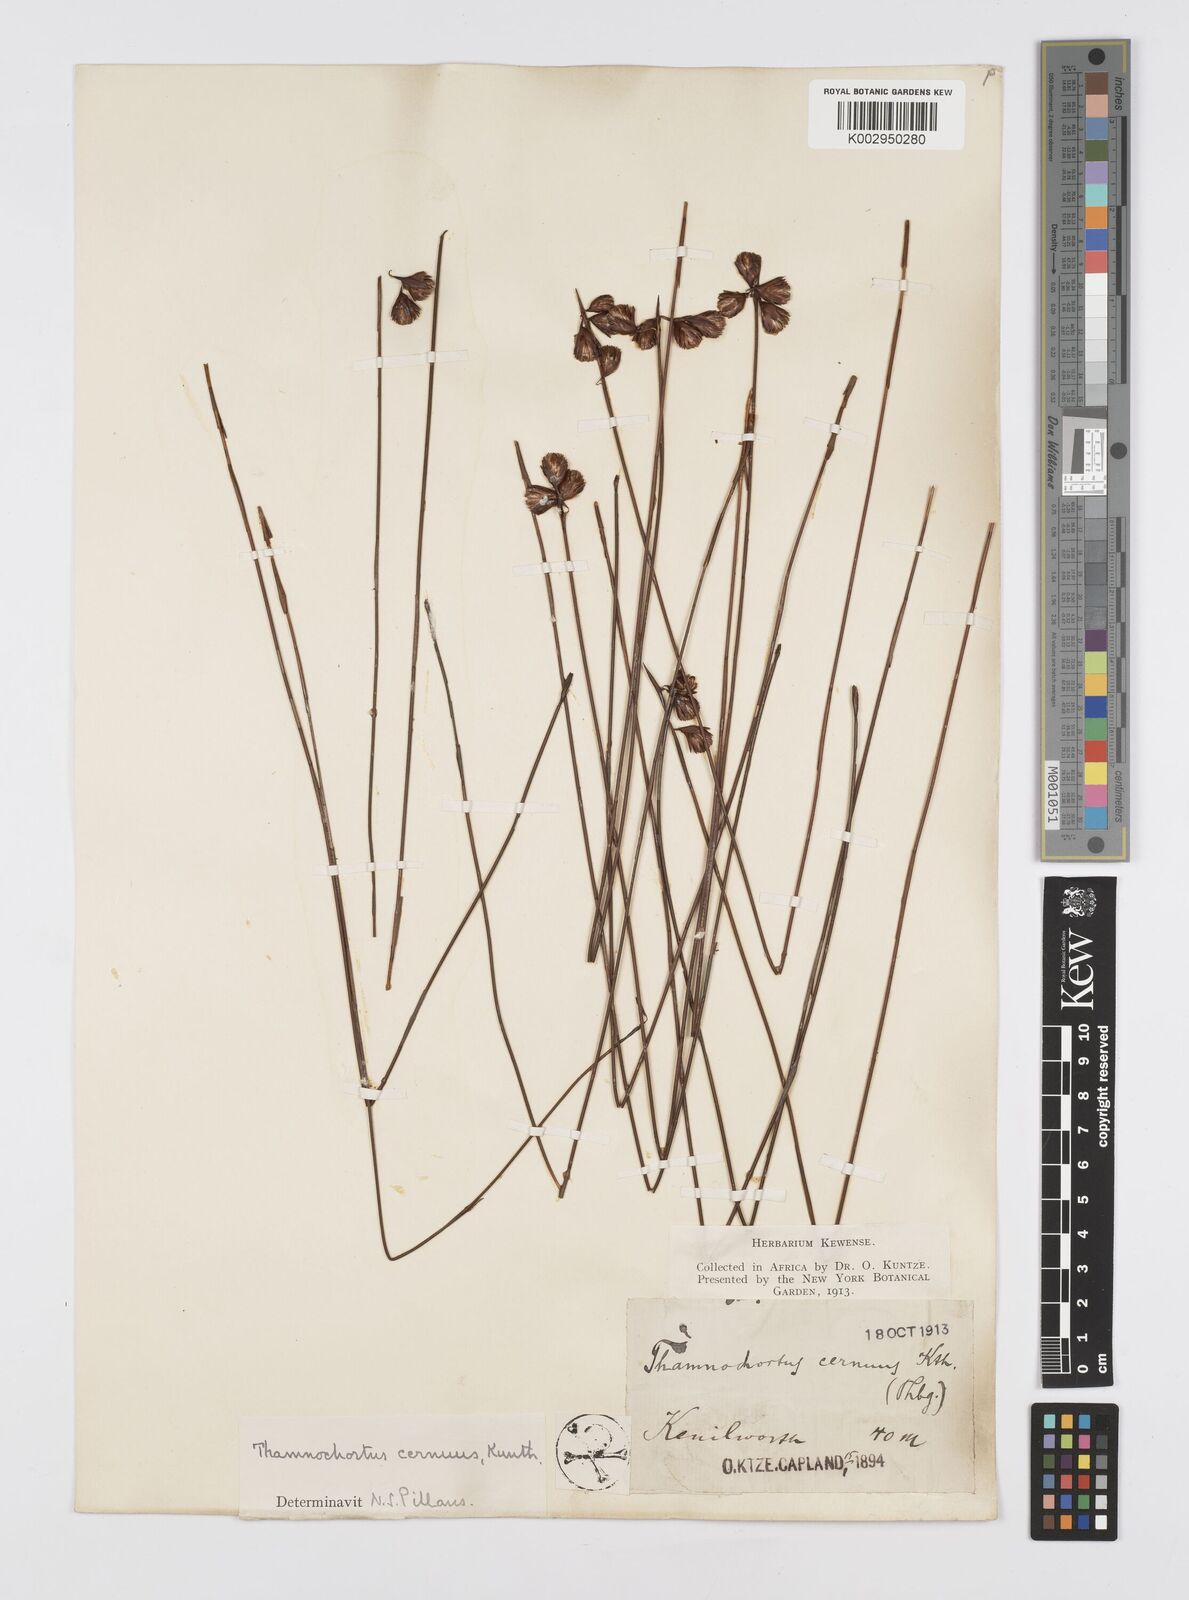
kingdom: Plantae
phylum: Tracheophyta
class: Liliopsida
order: Poales
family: Restionaceae
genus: Staberoha
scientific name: Staberoha cernua
